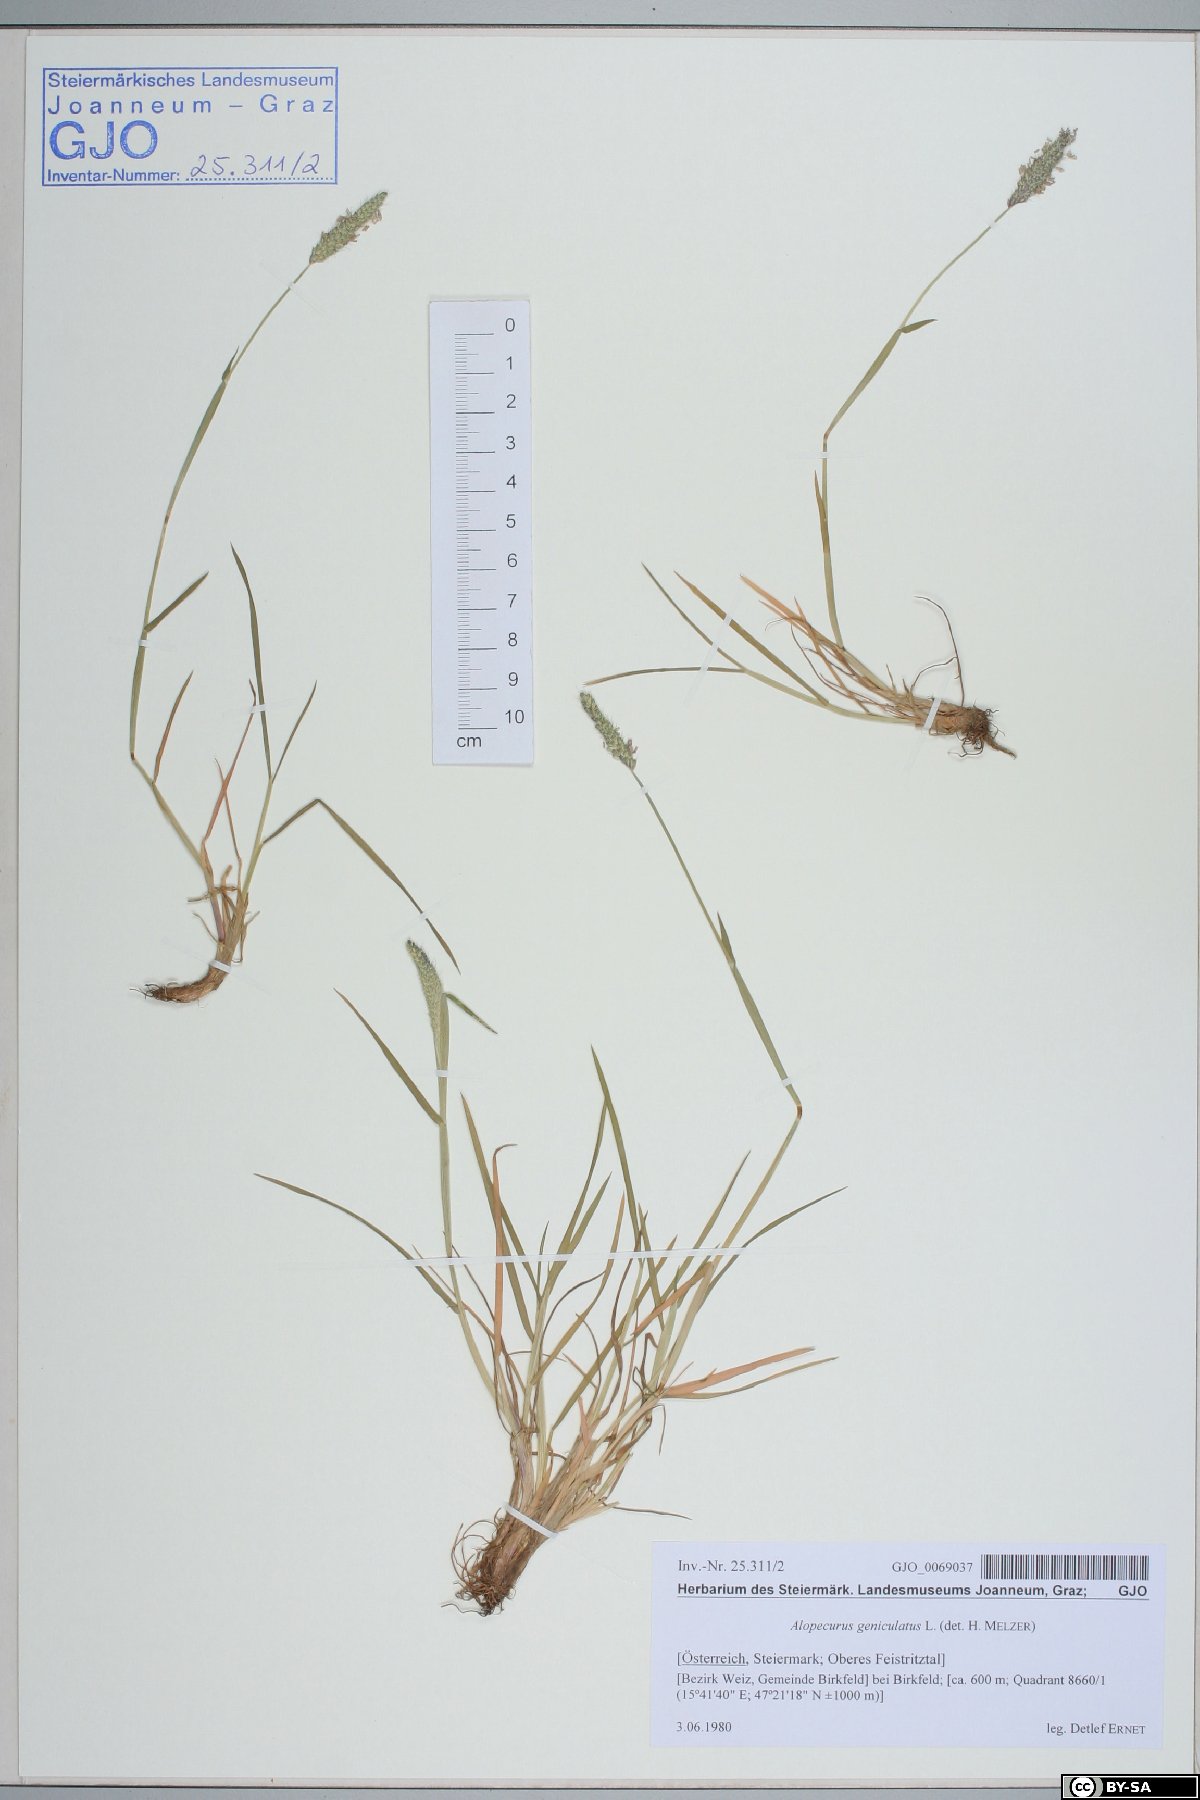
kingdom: Plantae
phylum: Tracheophyta
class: Liliopsida
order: Poales
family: Poaceae
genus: Alopecurus
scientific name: Alopecurus geniculatus
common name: Water foxtail
